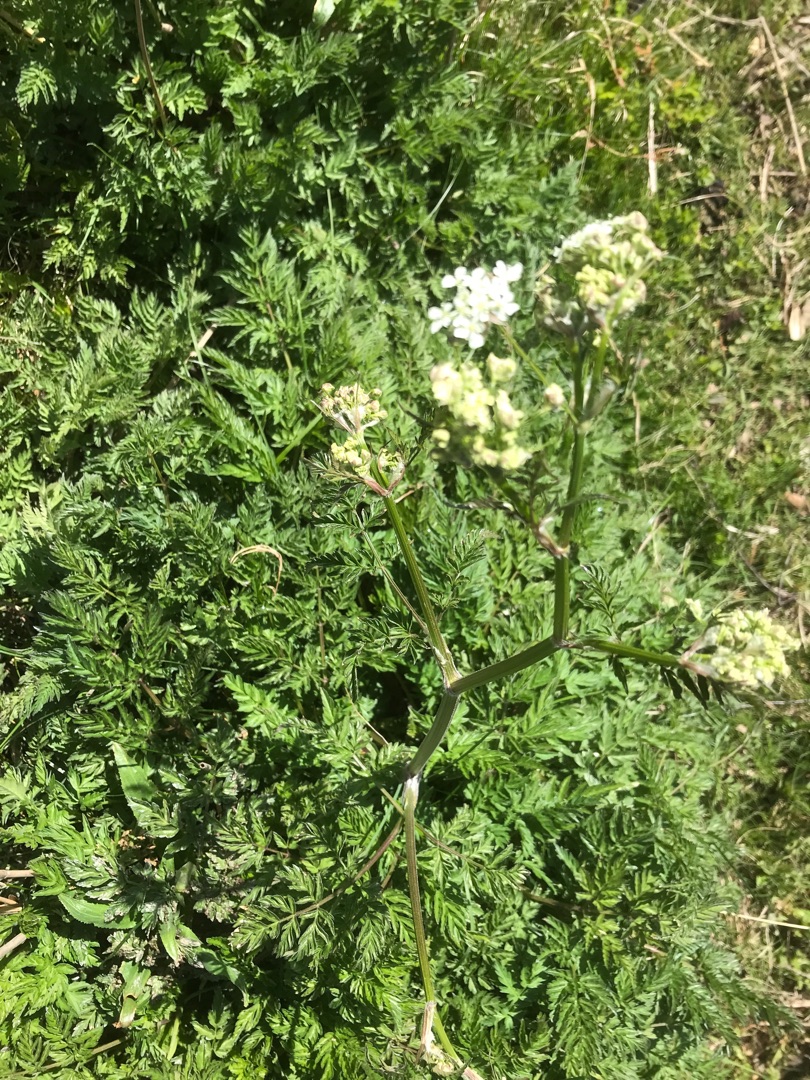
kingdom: Plantae
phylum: Tracheophyta
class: Magnoliopsida
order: Apiales
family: Apiaceae
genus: Anthriscus
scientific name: Anthriscus sylvestris
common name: Vild kørvel
